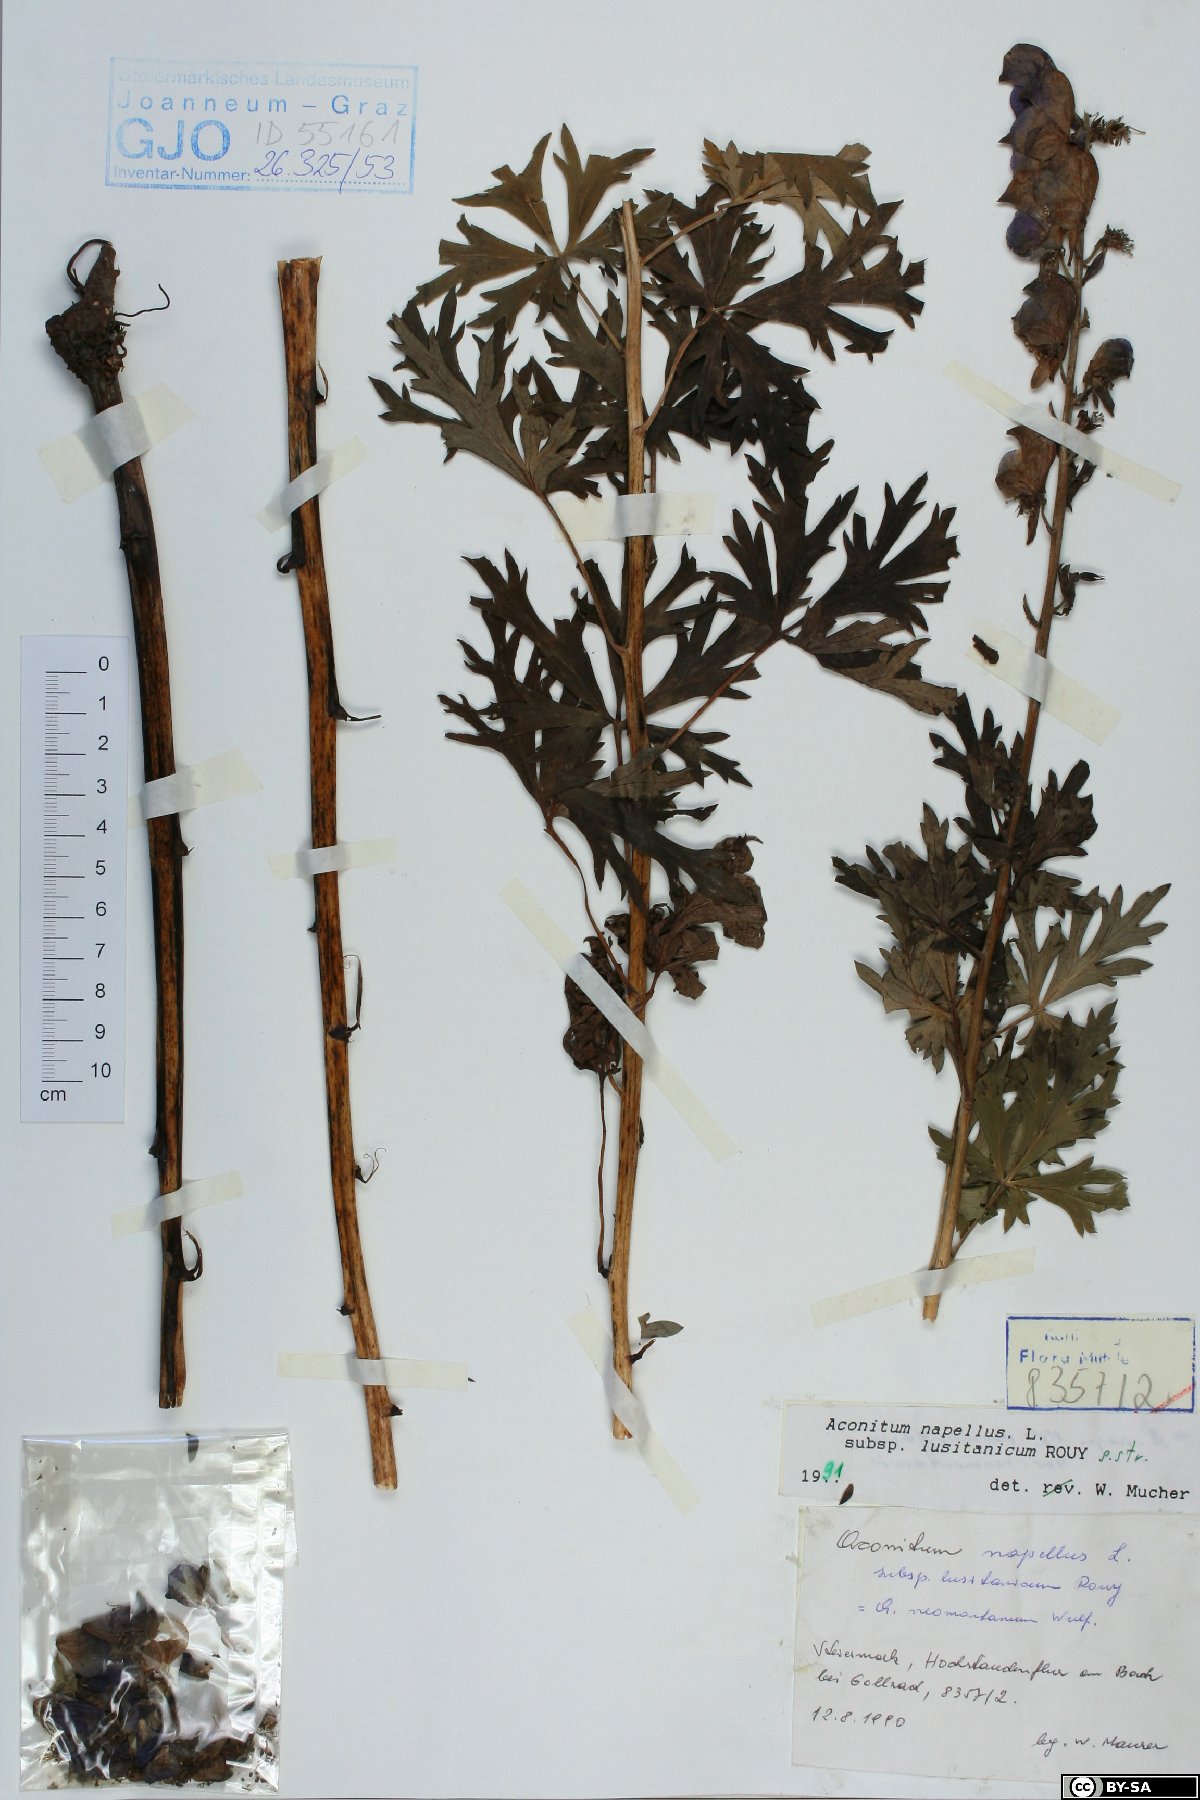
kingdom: Plantae
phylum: Tracheophyta
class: Magnoliopsida
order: Ranunculales
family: Ranunculaceae
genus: Aconitum
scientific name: Aconitum napellus
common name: Garden monkshood
